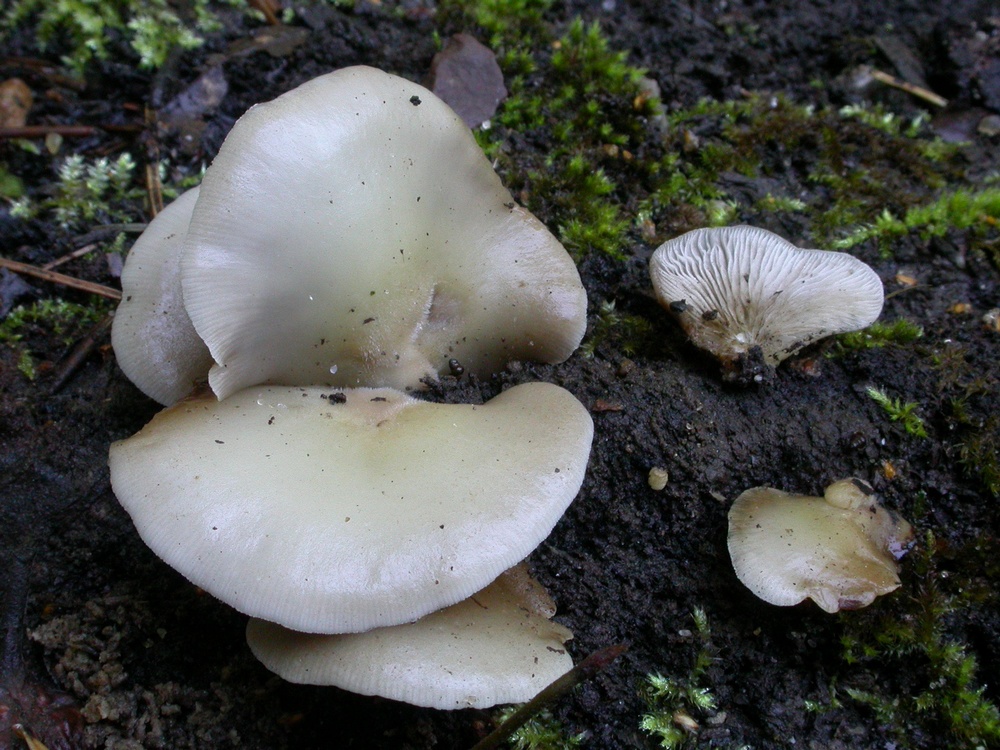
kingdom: Fungi
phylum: Basidiomycota
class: Agaricomycetes
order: Agaricales
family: Crepidotaceae
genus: Crepidotus
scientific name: Crepidotus mollis
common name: blød muslingesvamp
